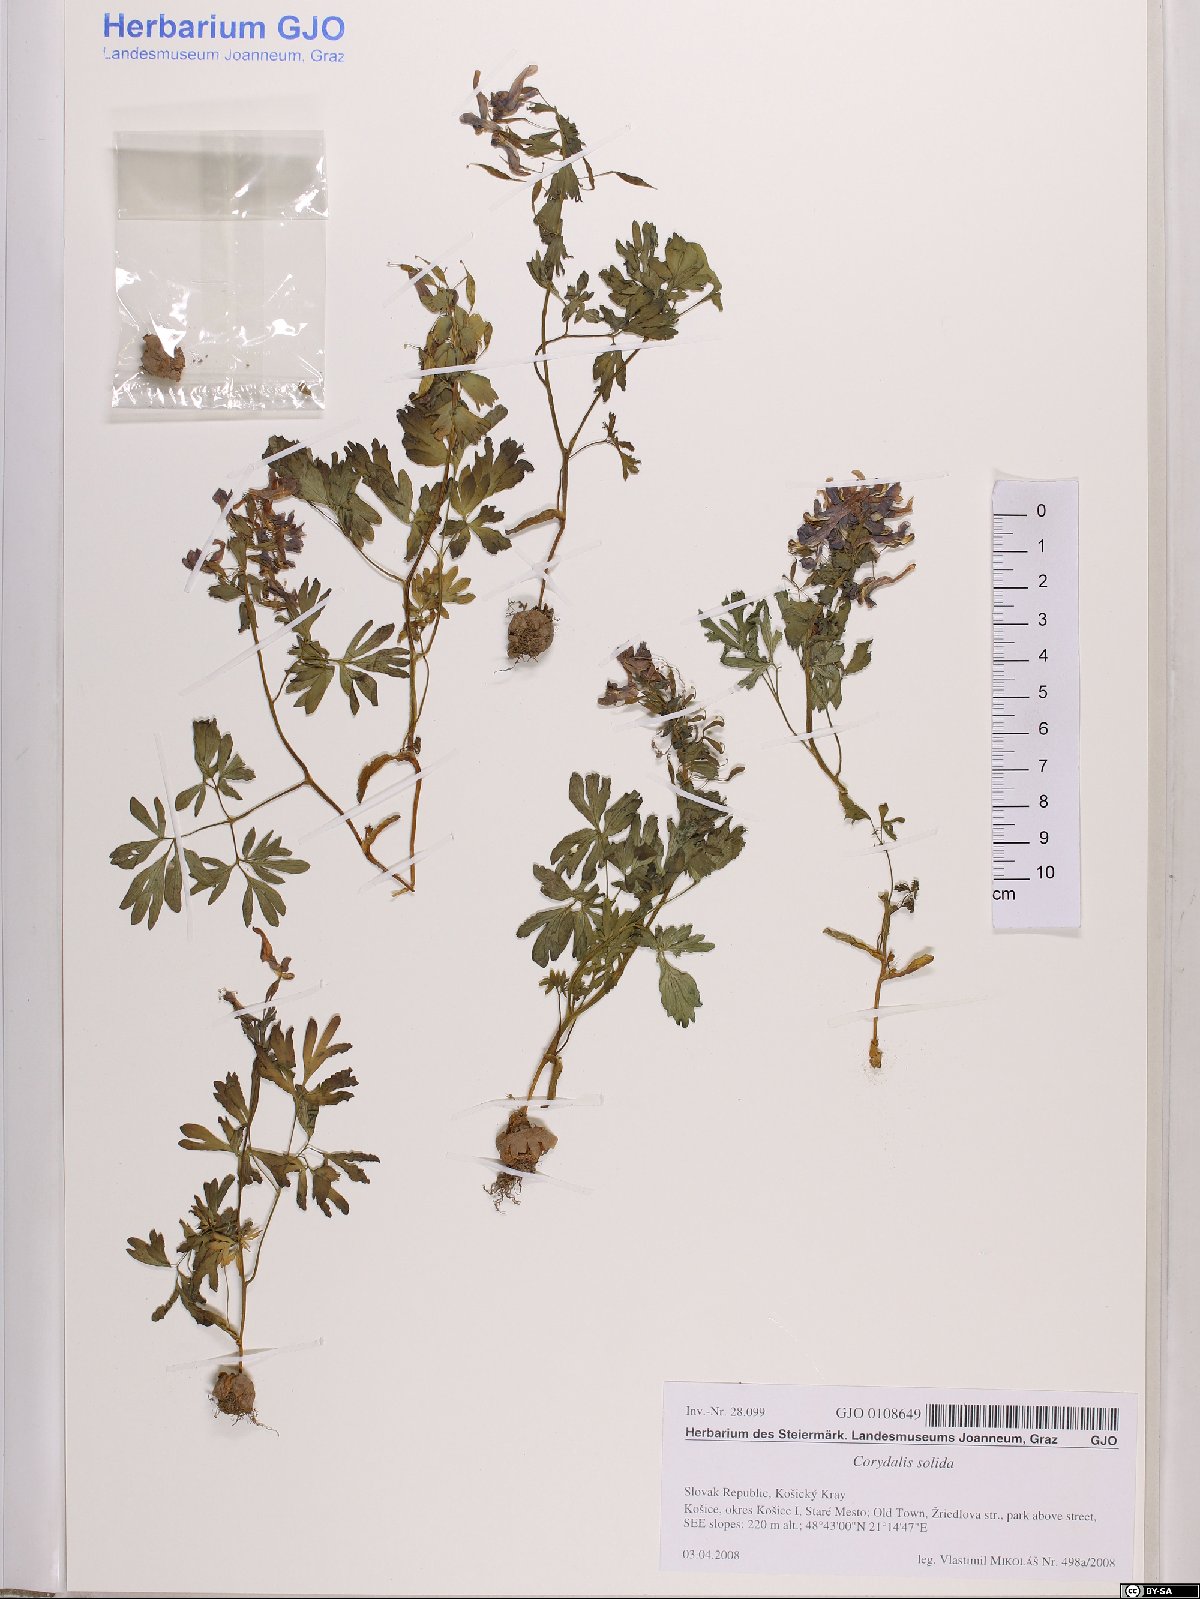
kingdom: Plantae
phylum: Tracheophyta
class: Magnoliopsida
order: Ranunculales
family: Papaveraceae
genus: Corydalis
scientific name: Corydalis solida
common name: Bird-in-a-bush
